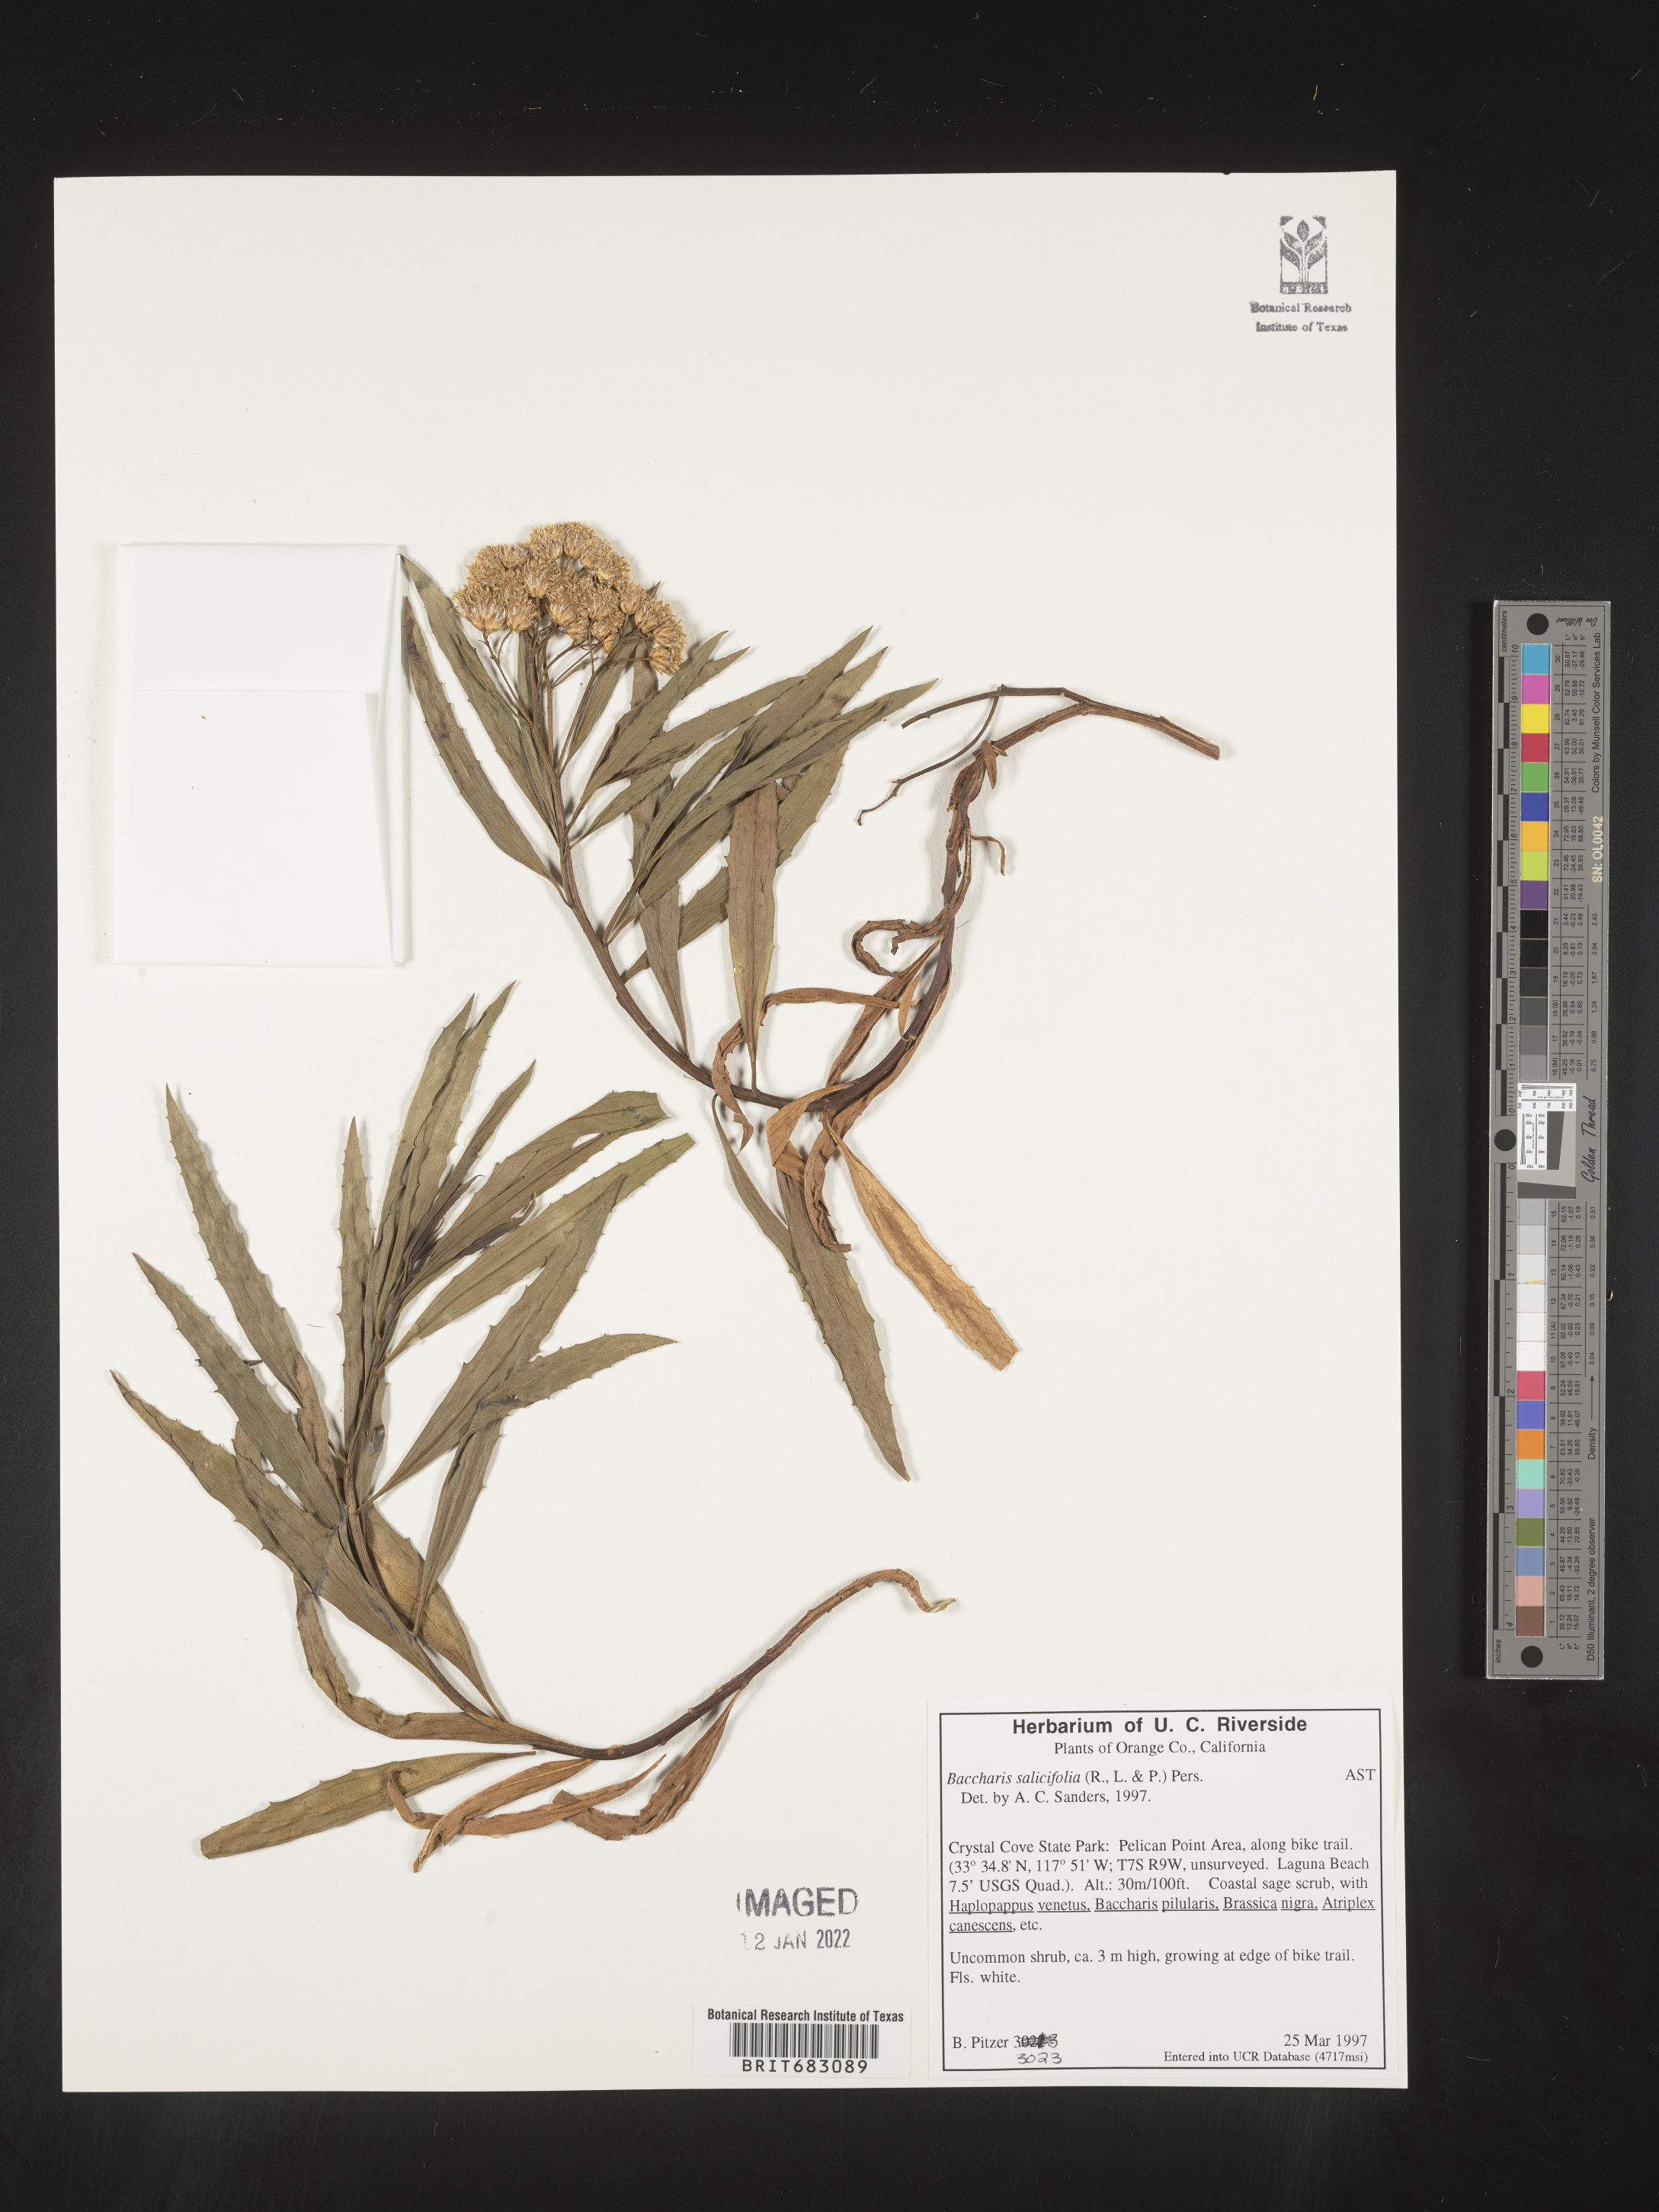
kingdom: Plantae
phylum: Tracheophyta
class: Magnoliopsida
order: Asterales
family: Asteraceae
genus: Baccharis
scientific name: Baccharis salicifolia
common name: Sticky baccharis
